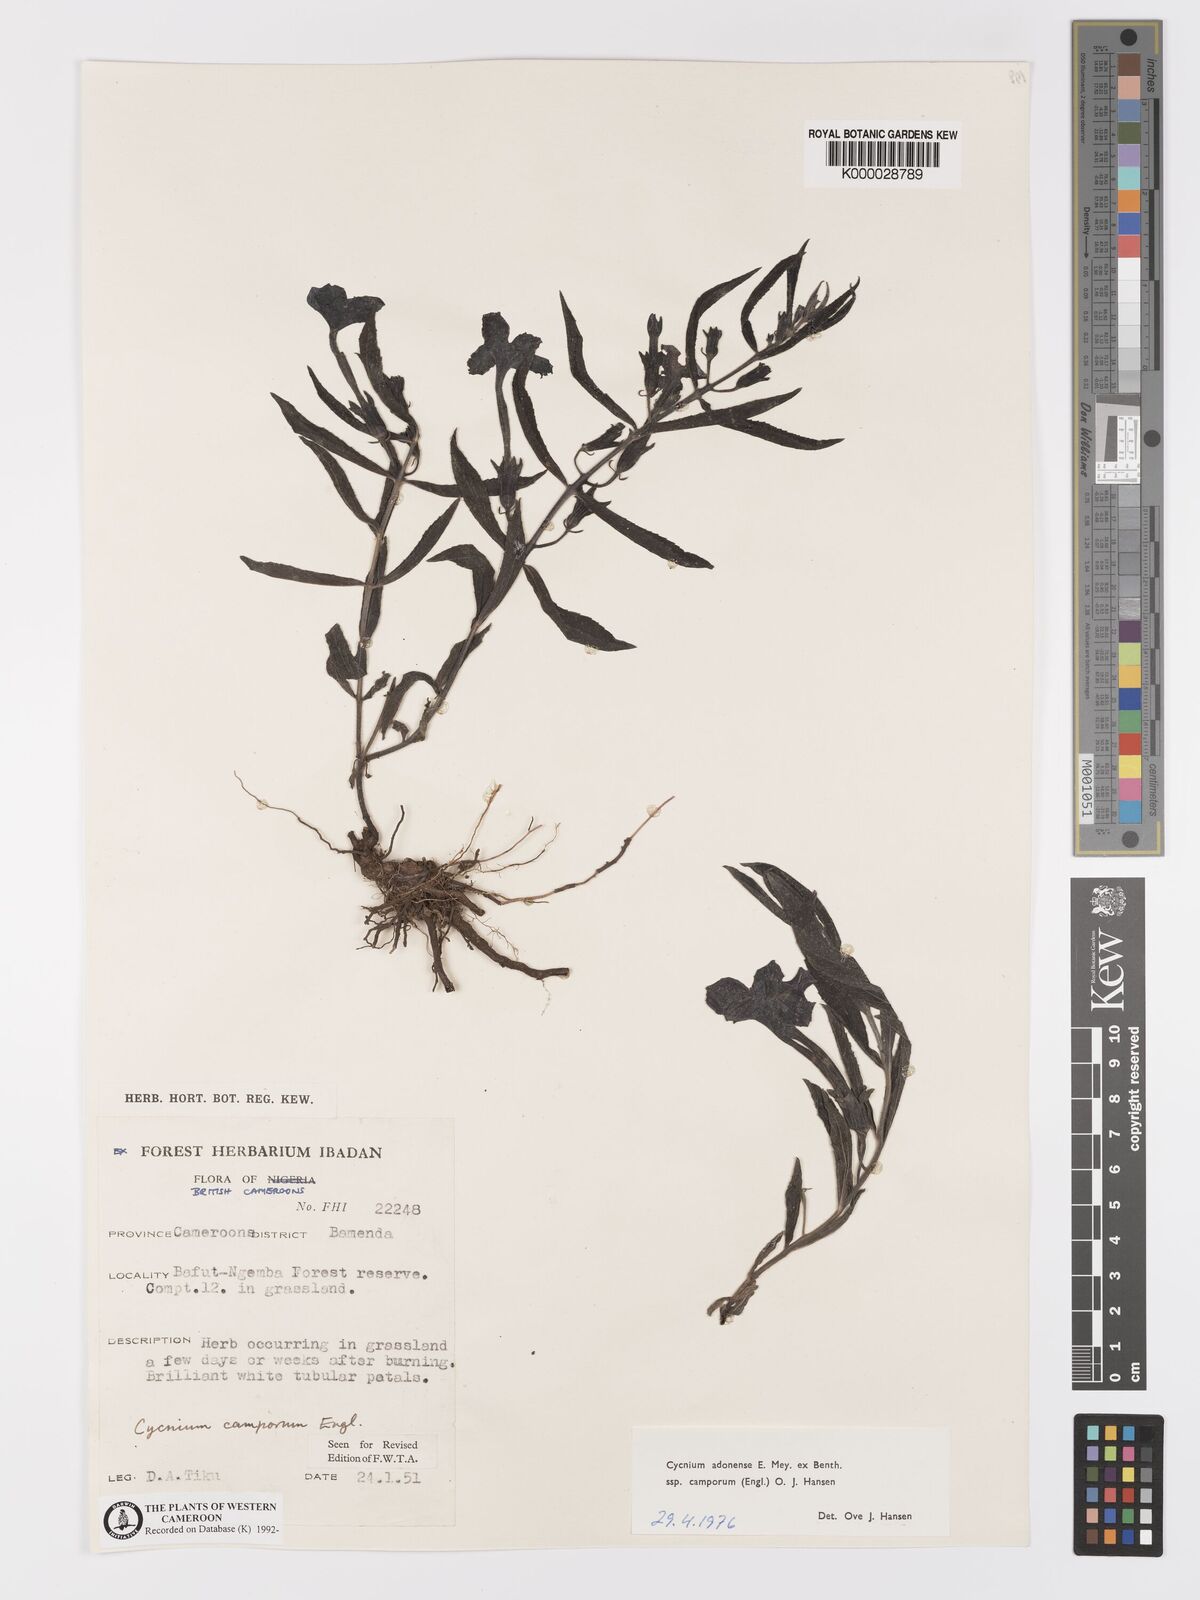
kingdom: Plantae
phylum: Tracheophyta
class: Magnoliopsida
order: Lamiales
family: Orobanchaceae
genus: Cycnium
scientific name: Cycnium adoense
